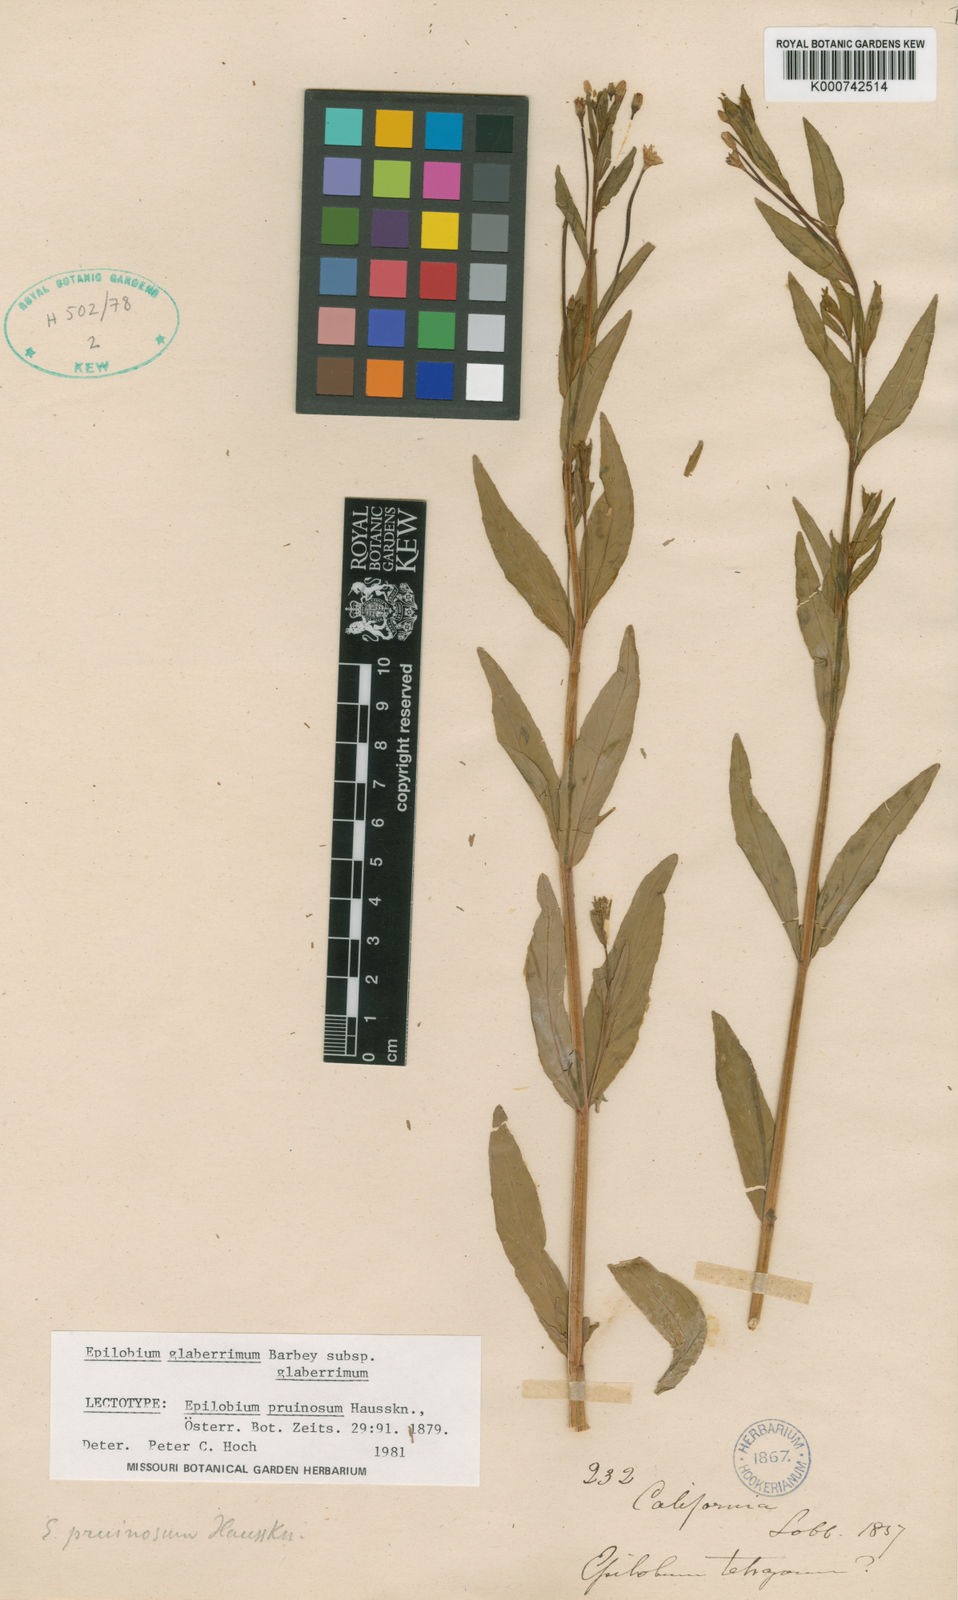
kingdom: Plantae
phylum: Tracheophyta
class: Magnoliopsida
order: Myrtales
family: Onagraceae
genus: Epilobium
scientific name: Epilobium glaberrimum
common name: Glaucous willowherb
